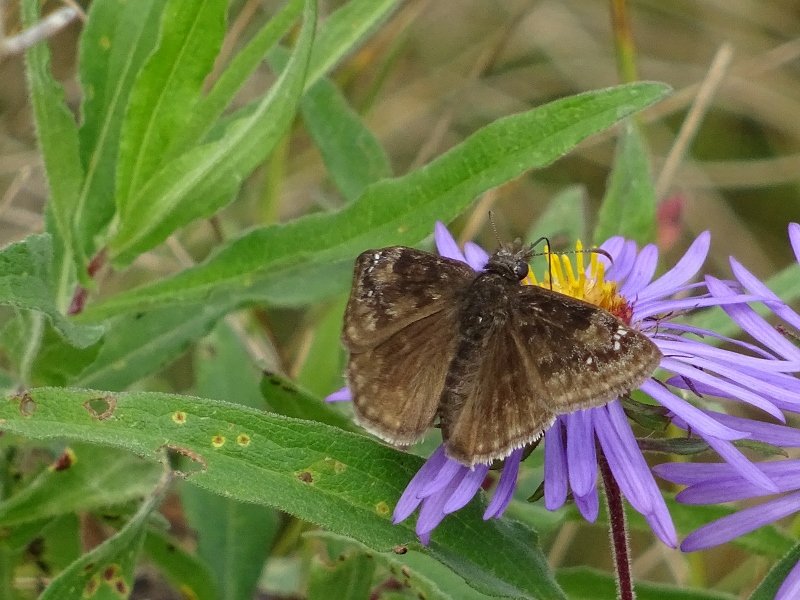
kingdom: Animalia
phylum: Arthropoda
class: Insecta
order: Lepidoptera
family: Hesperiidae
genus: Gesta
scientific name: Gesta
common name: Wild Indigo Duskywing
